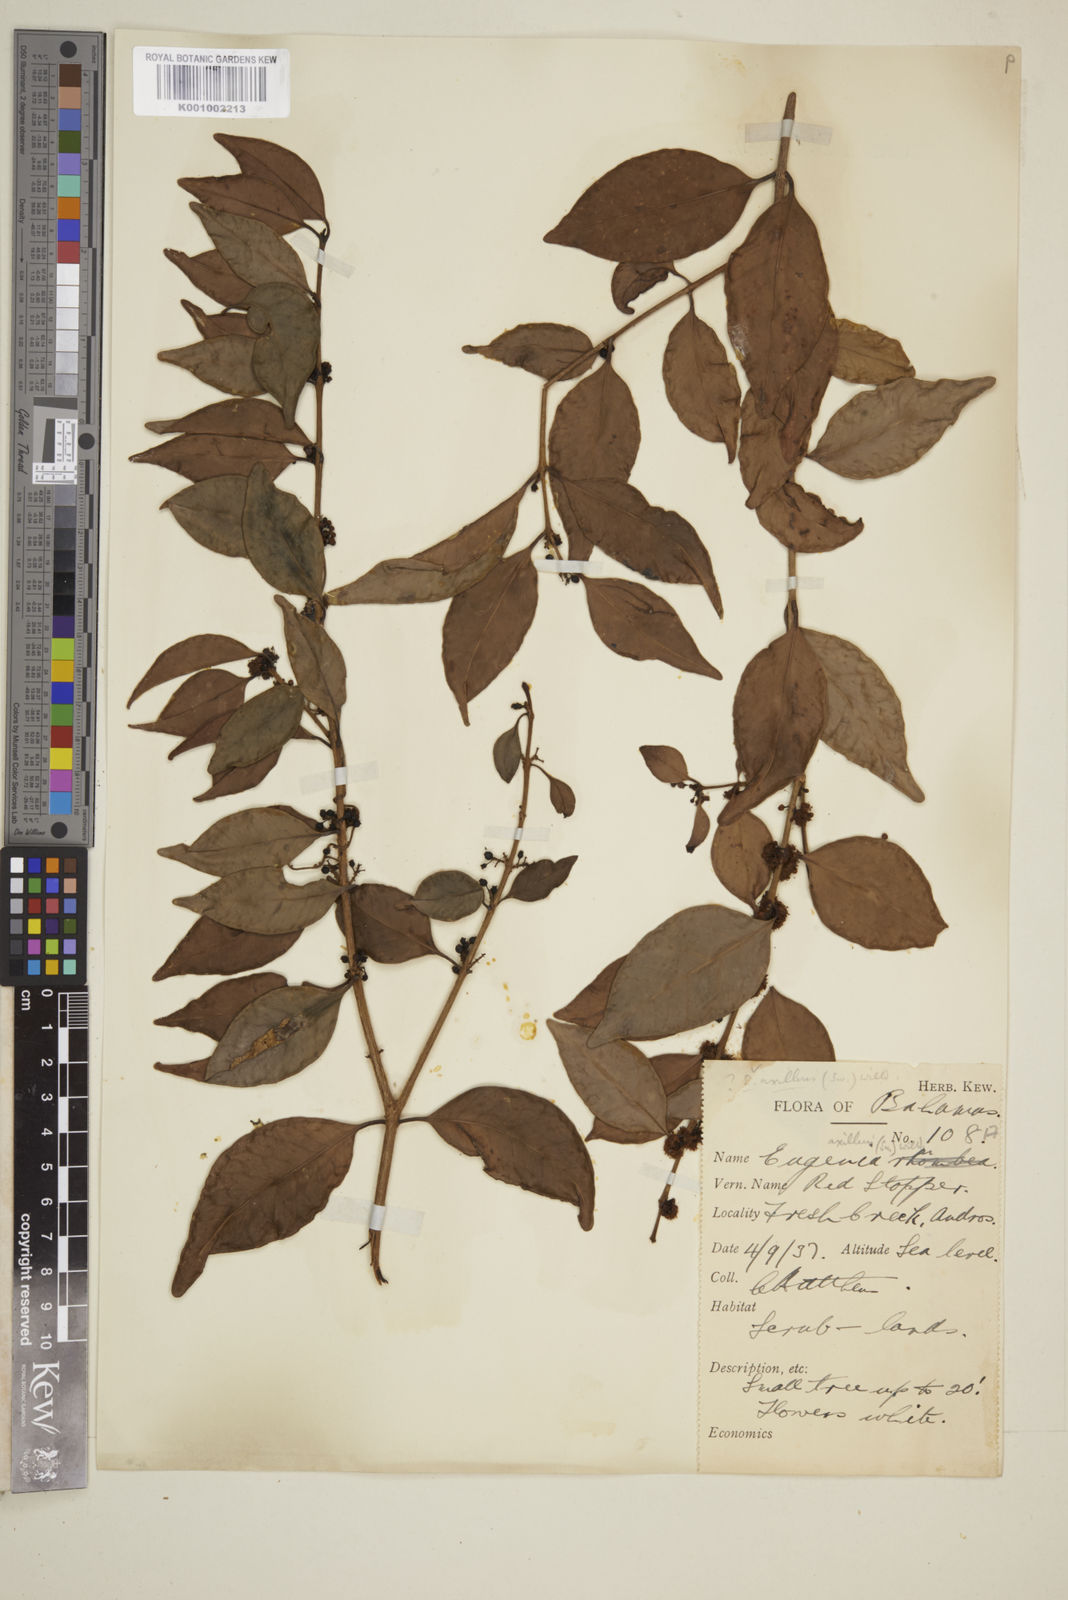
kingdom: Plantae
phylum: Tracheophyta
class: Magnoliopsida
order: Myrtales
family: Myrtaceae
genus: Eugenia
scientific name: Eugenia axillaris
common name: Choaky berry
